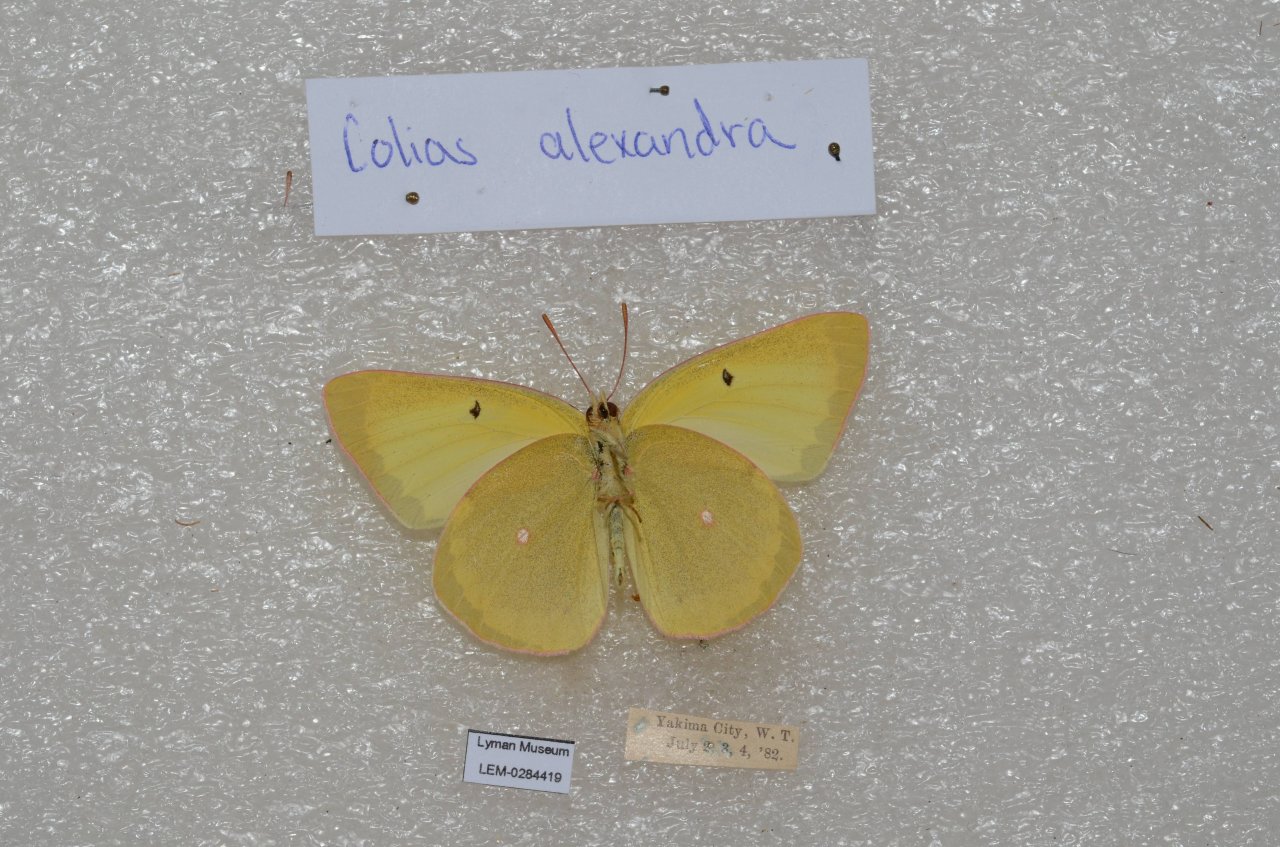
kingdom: Animalia
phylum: Arthropoda
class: Insecta
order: Lepidoptera
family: Pieridae
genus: Colias
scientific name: Colias alexandra
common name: Queen Alexandra's Sulphur
